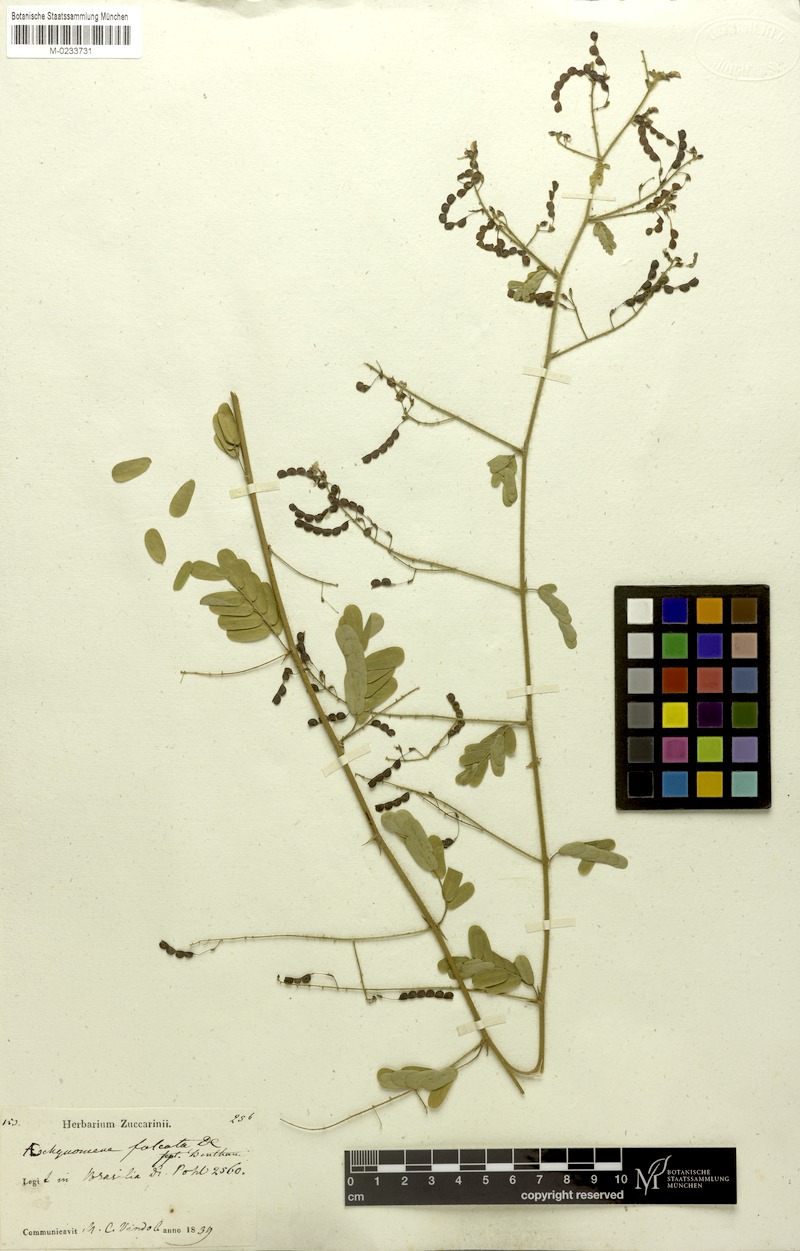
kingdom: Plantae
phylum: Tracheophyta
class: Magnoliopsida
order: Fabales
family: Fabaceae
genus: Ctenodon
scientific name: Ctenodon falcatus
